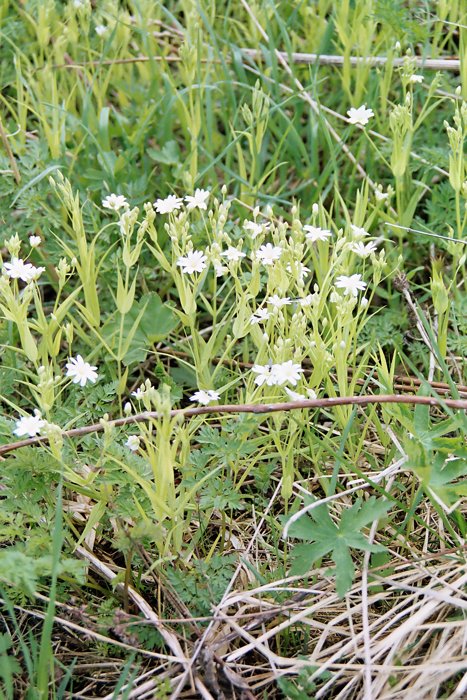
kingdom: Plantae
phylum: Tracheophyta
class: Magnoliopsida
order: Caryophyllales
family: Caryophyllaceae
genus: Rabelera
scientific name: Rabelera holostea
